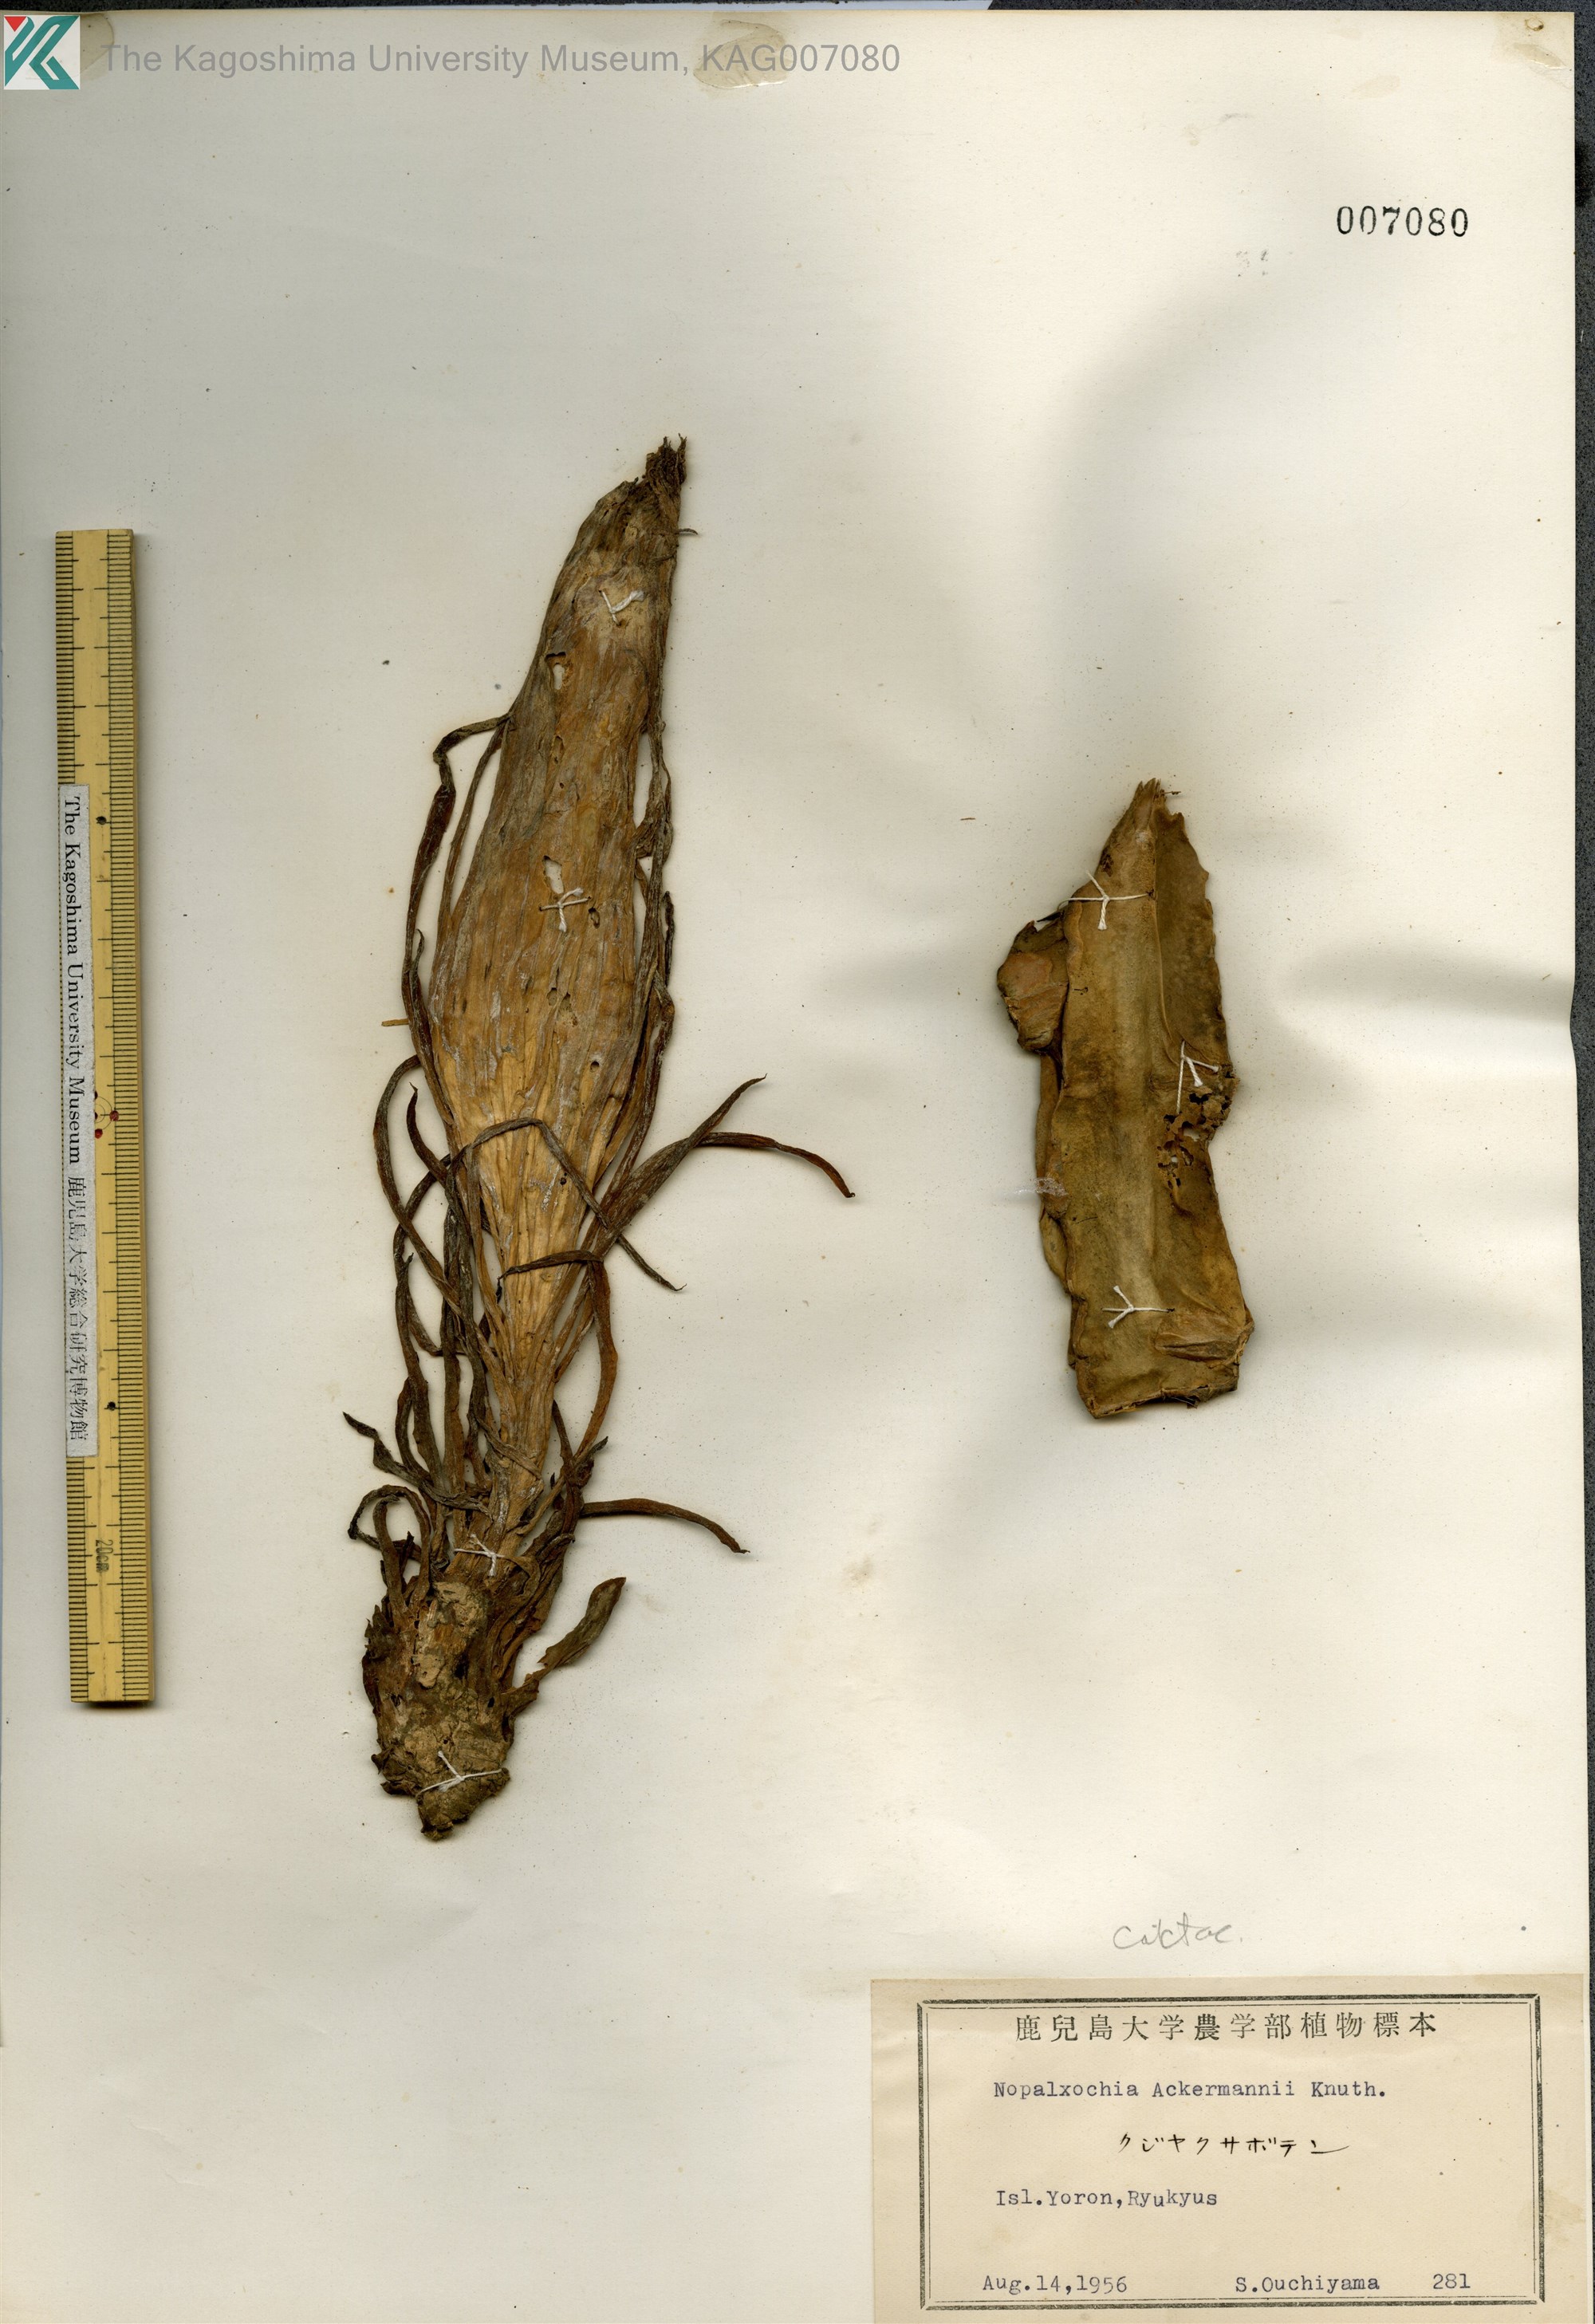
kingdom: Plantae
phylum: Tracheophyta
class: Magnoliopsida
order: Caryophyllales
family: Cactaceae
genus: Disocactus
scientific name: Disocactus ackermannii
